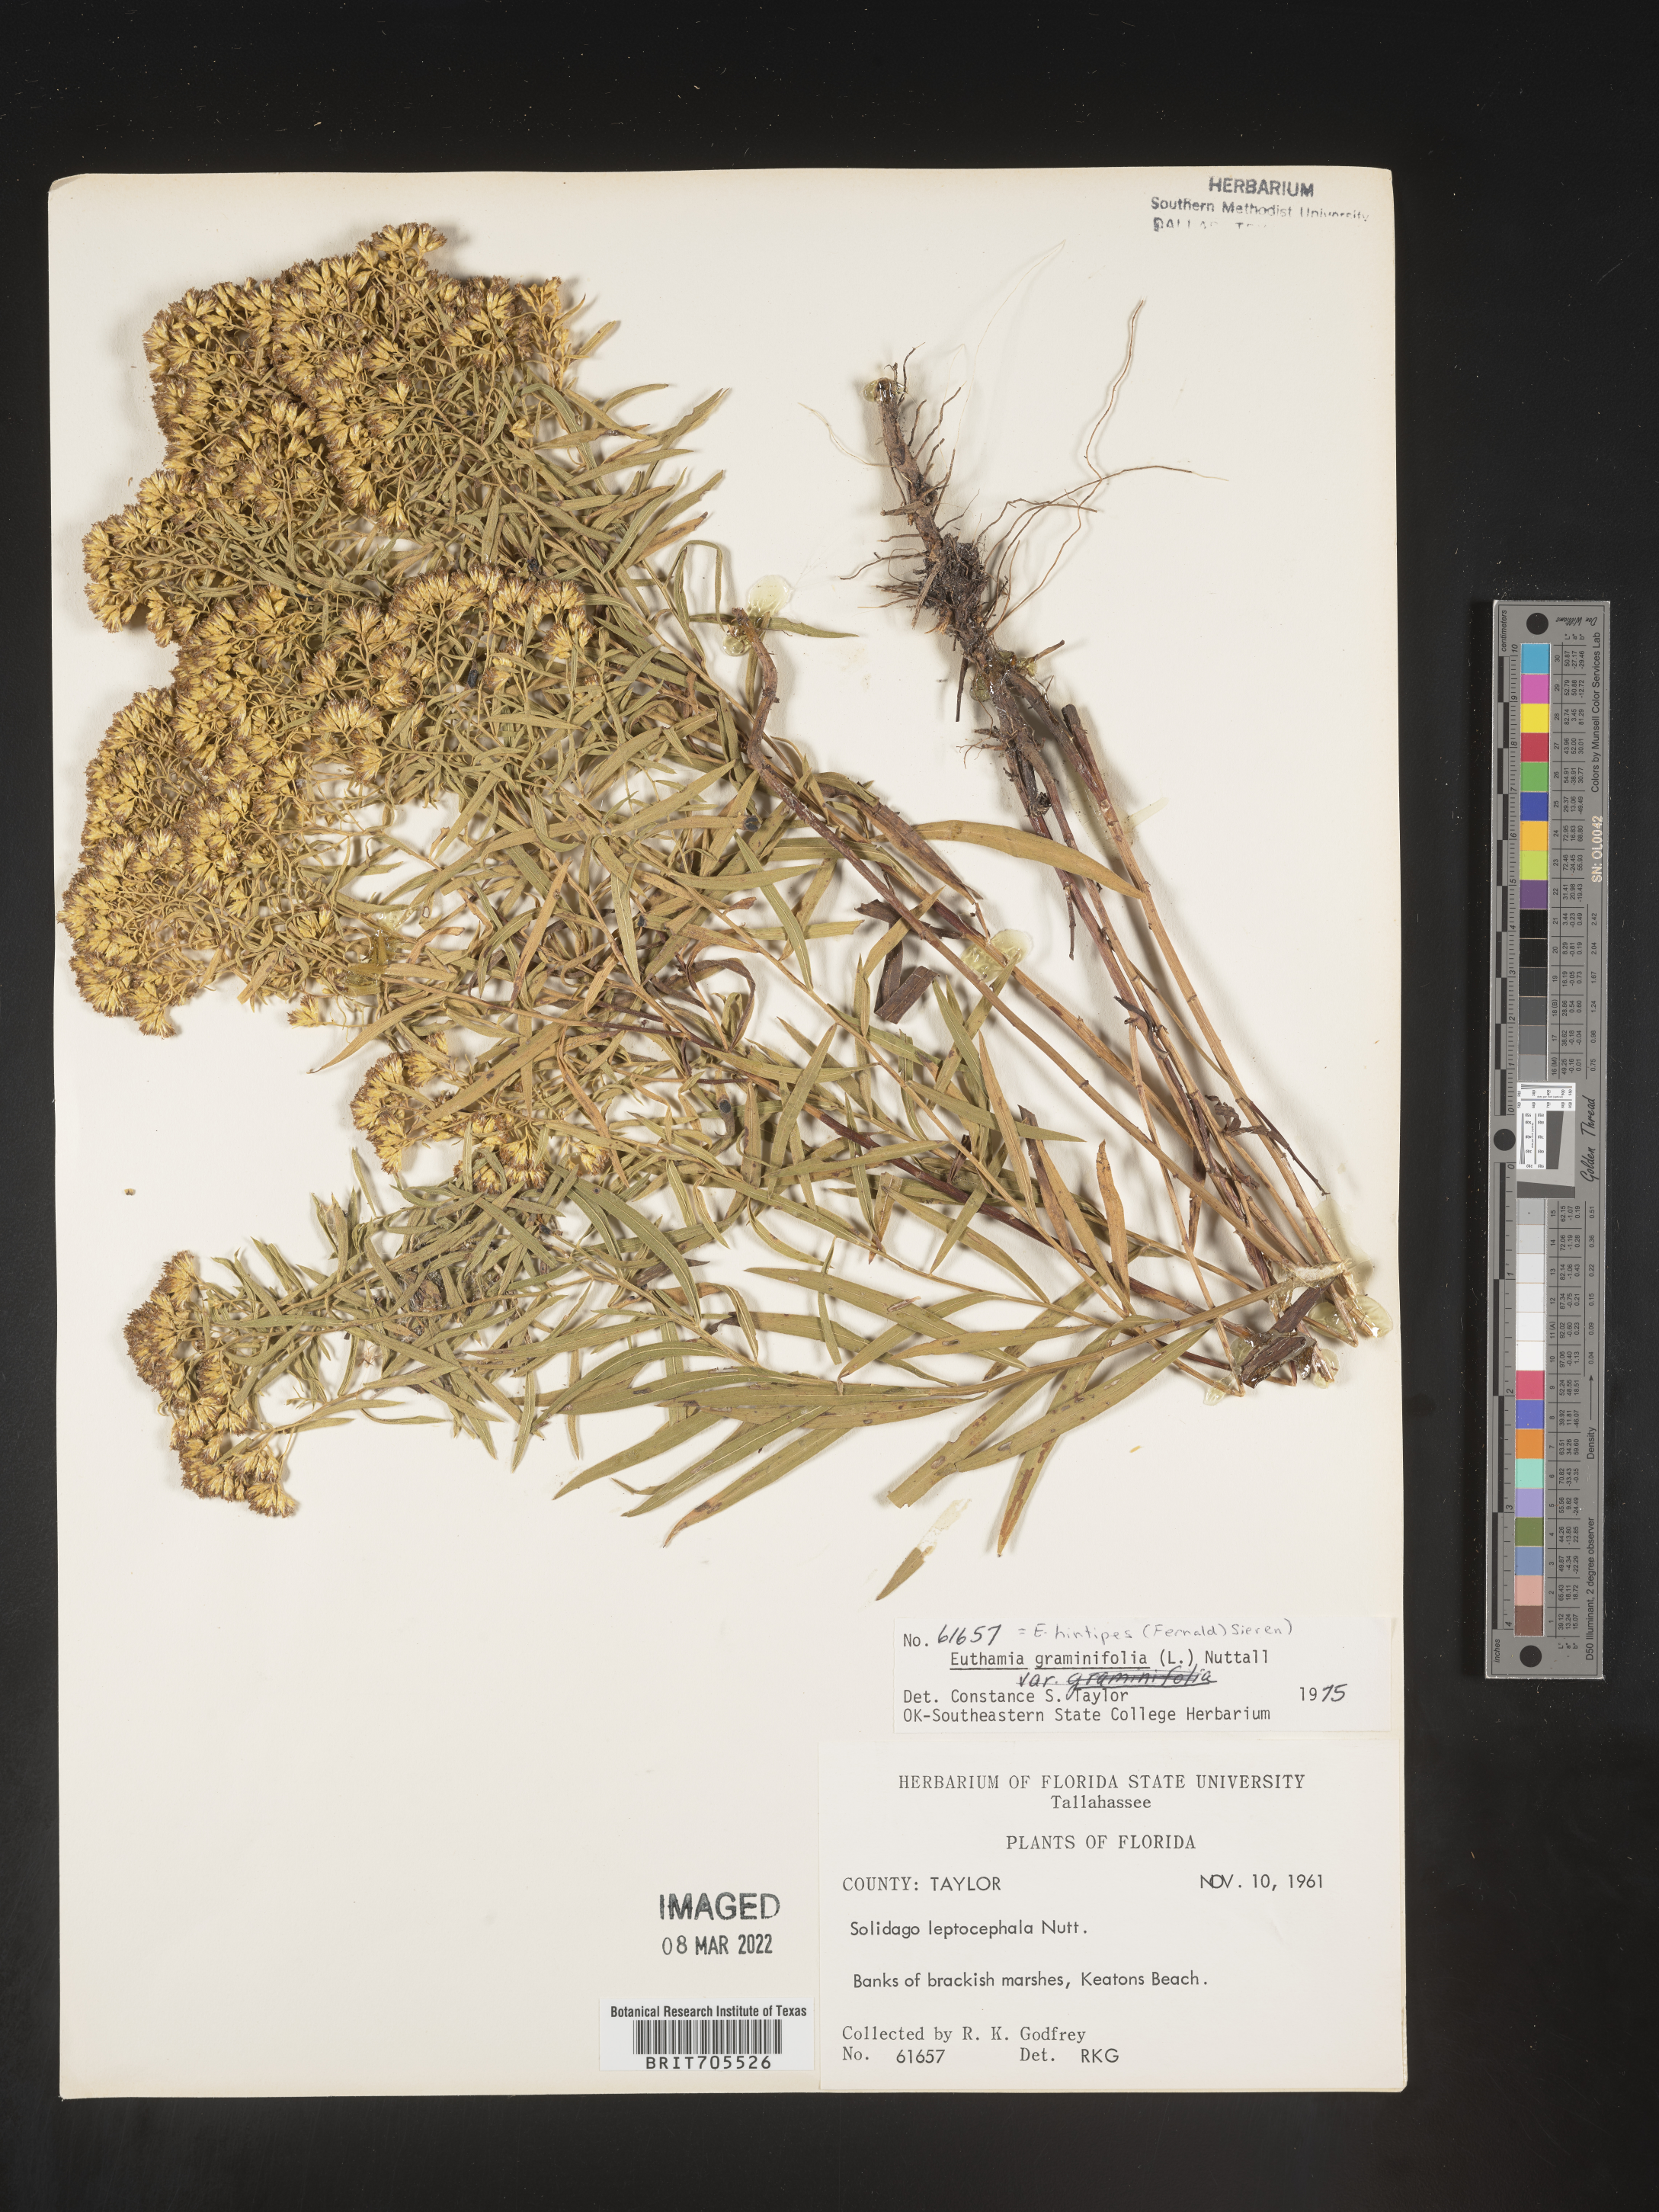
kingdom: Plantae
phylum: Tracheophyta
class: Magnoliopsida
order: Asterales
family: Asteraceae
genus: Euthamia
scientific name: Euthamia caroliniana
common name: Coastal plain goldentop
